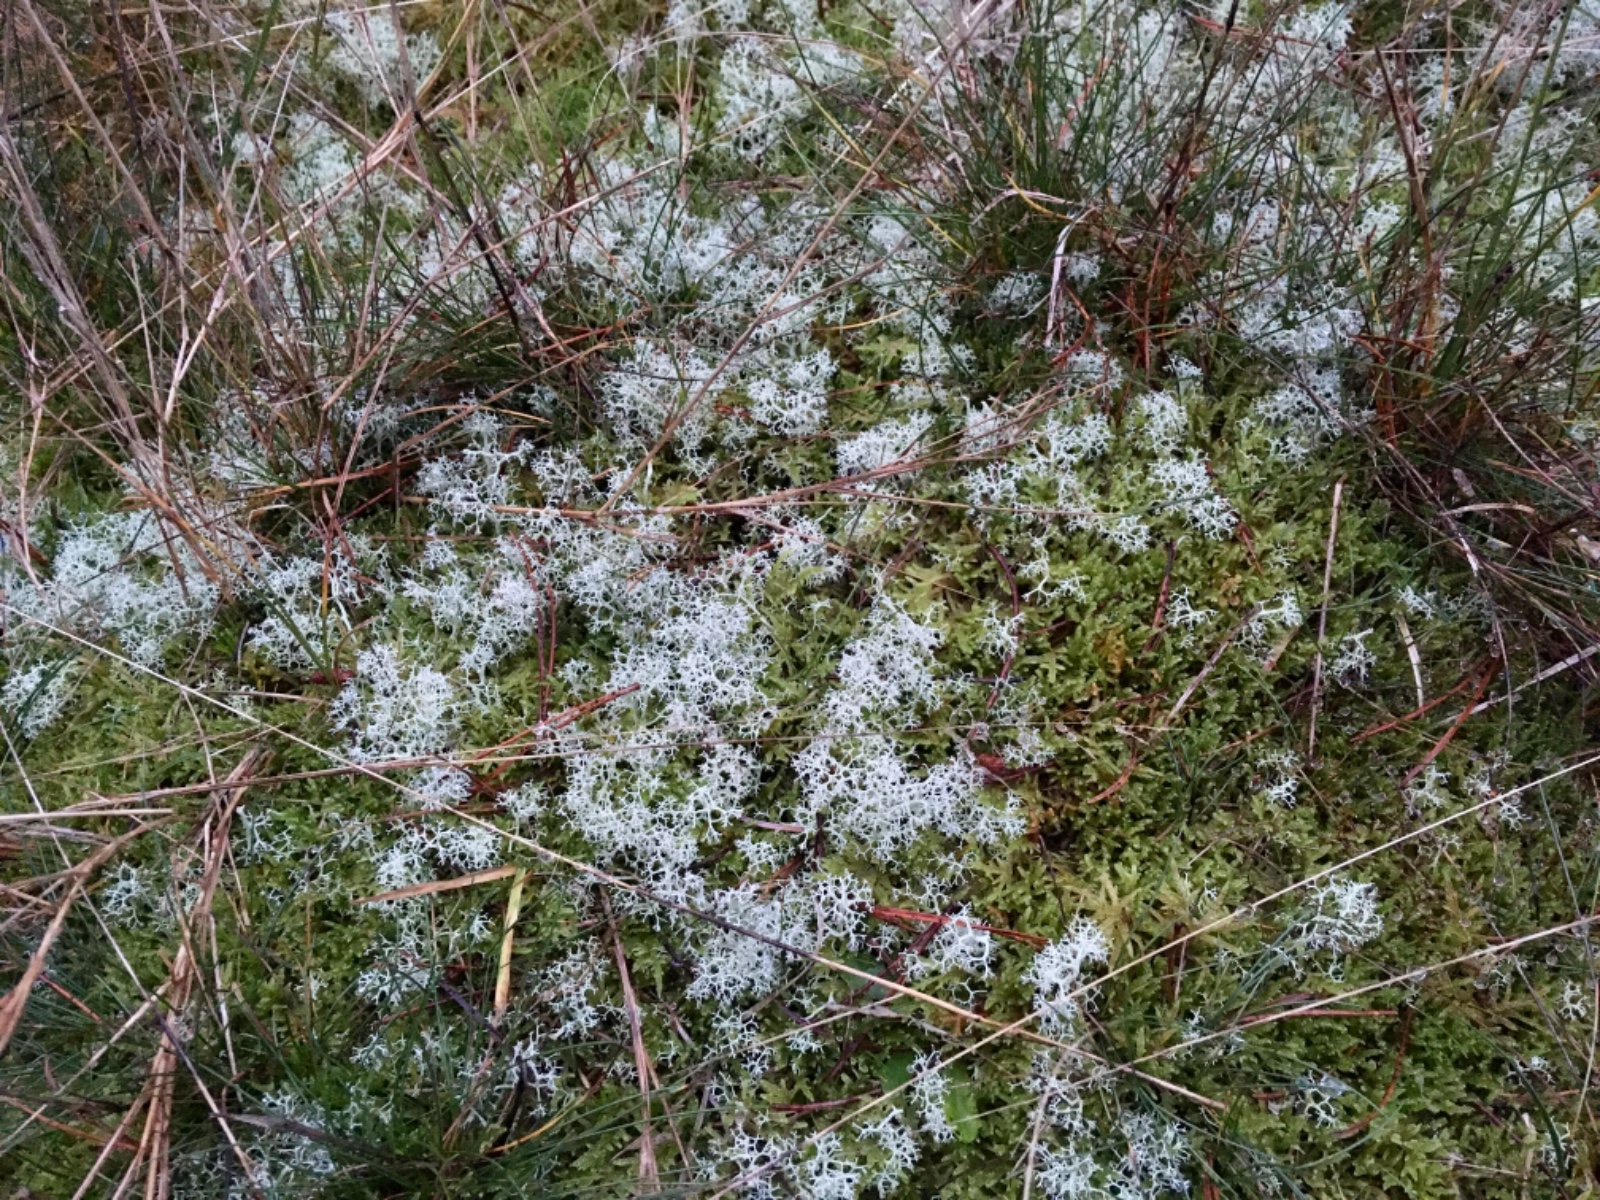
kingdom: Fungi
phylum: Ascomycota
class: Lecanoromycetes
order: Lecanorales
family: Cladoniaceae
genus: Cladonia
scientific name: Cladonia portentosa
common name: hede-rensdyrlav
